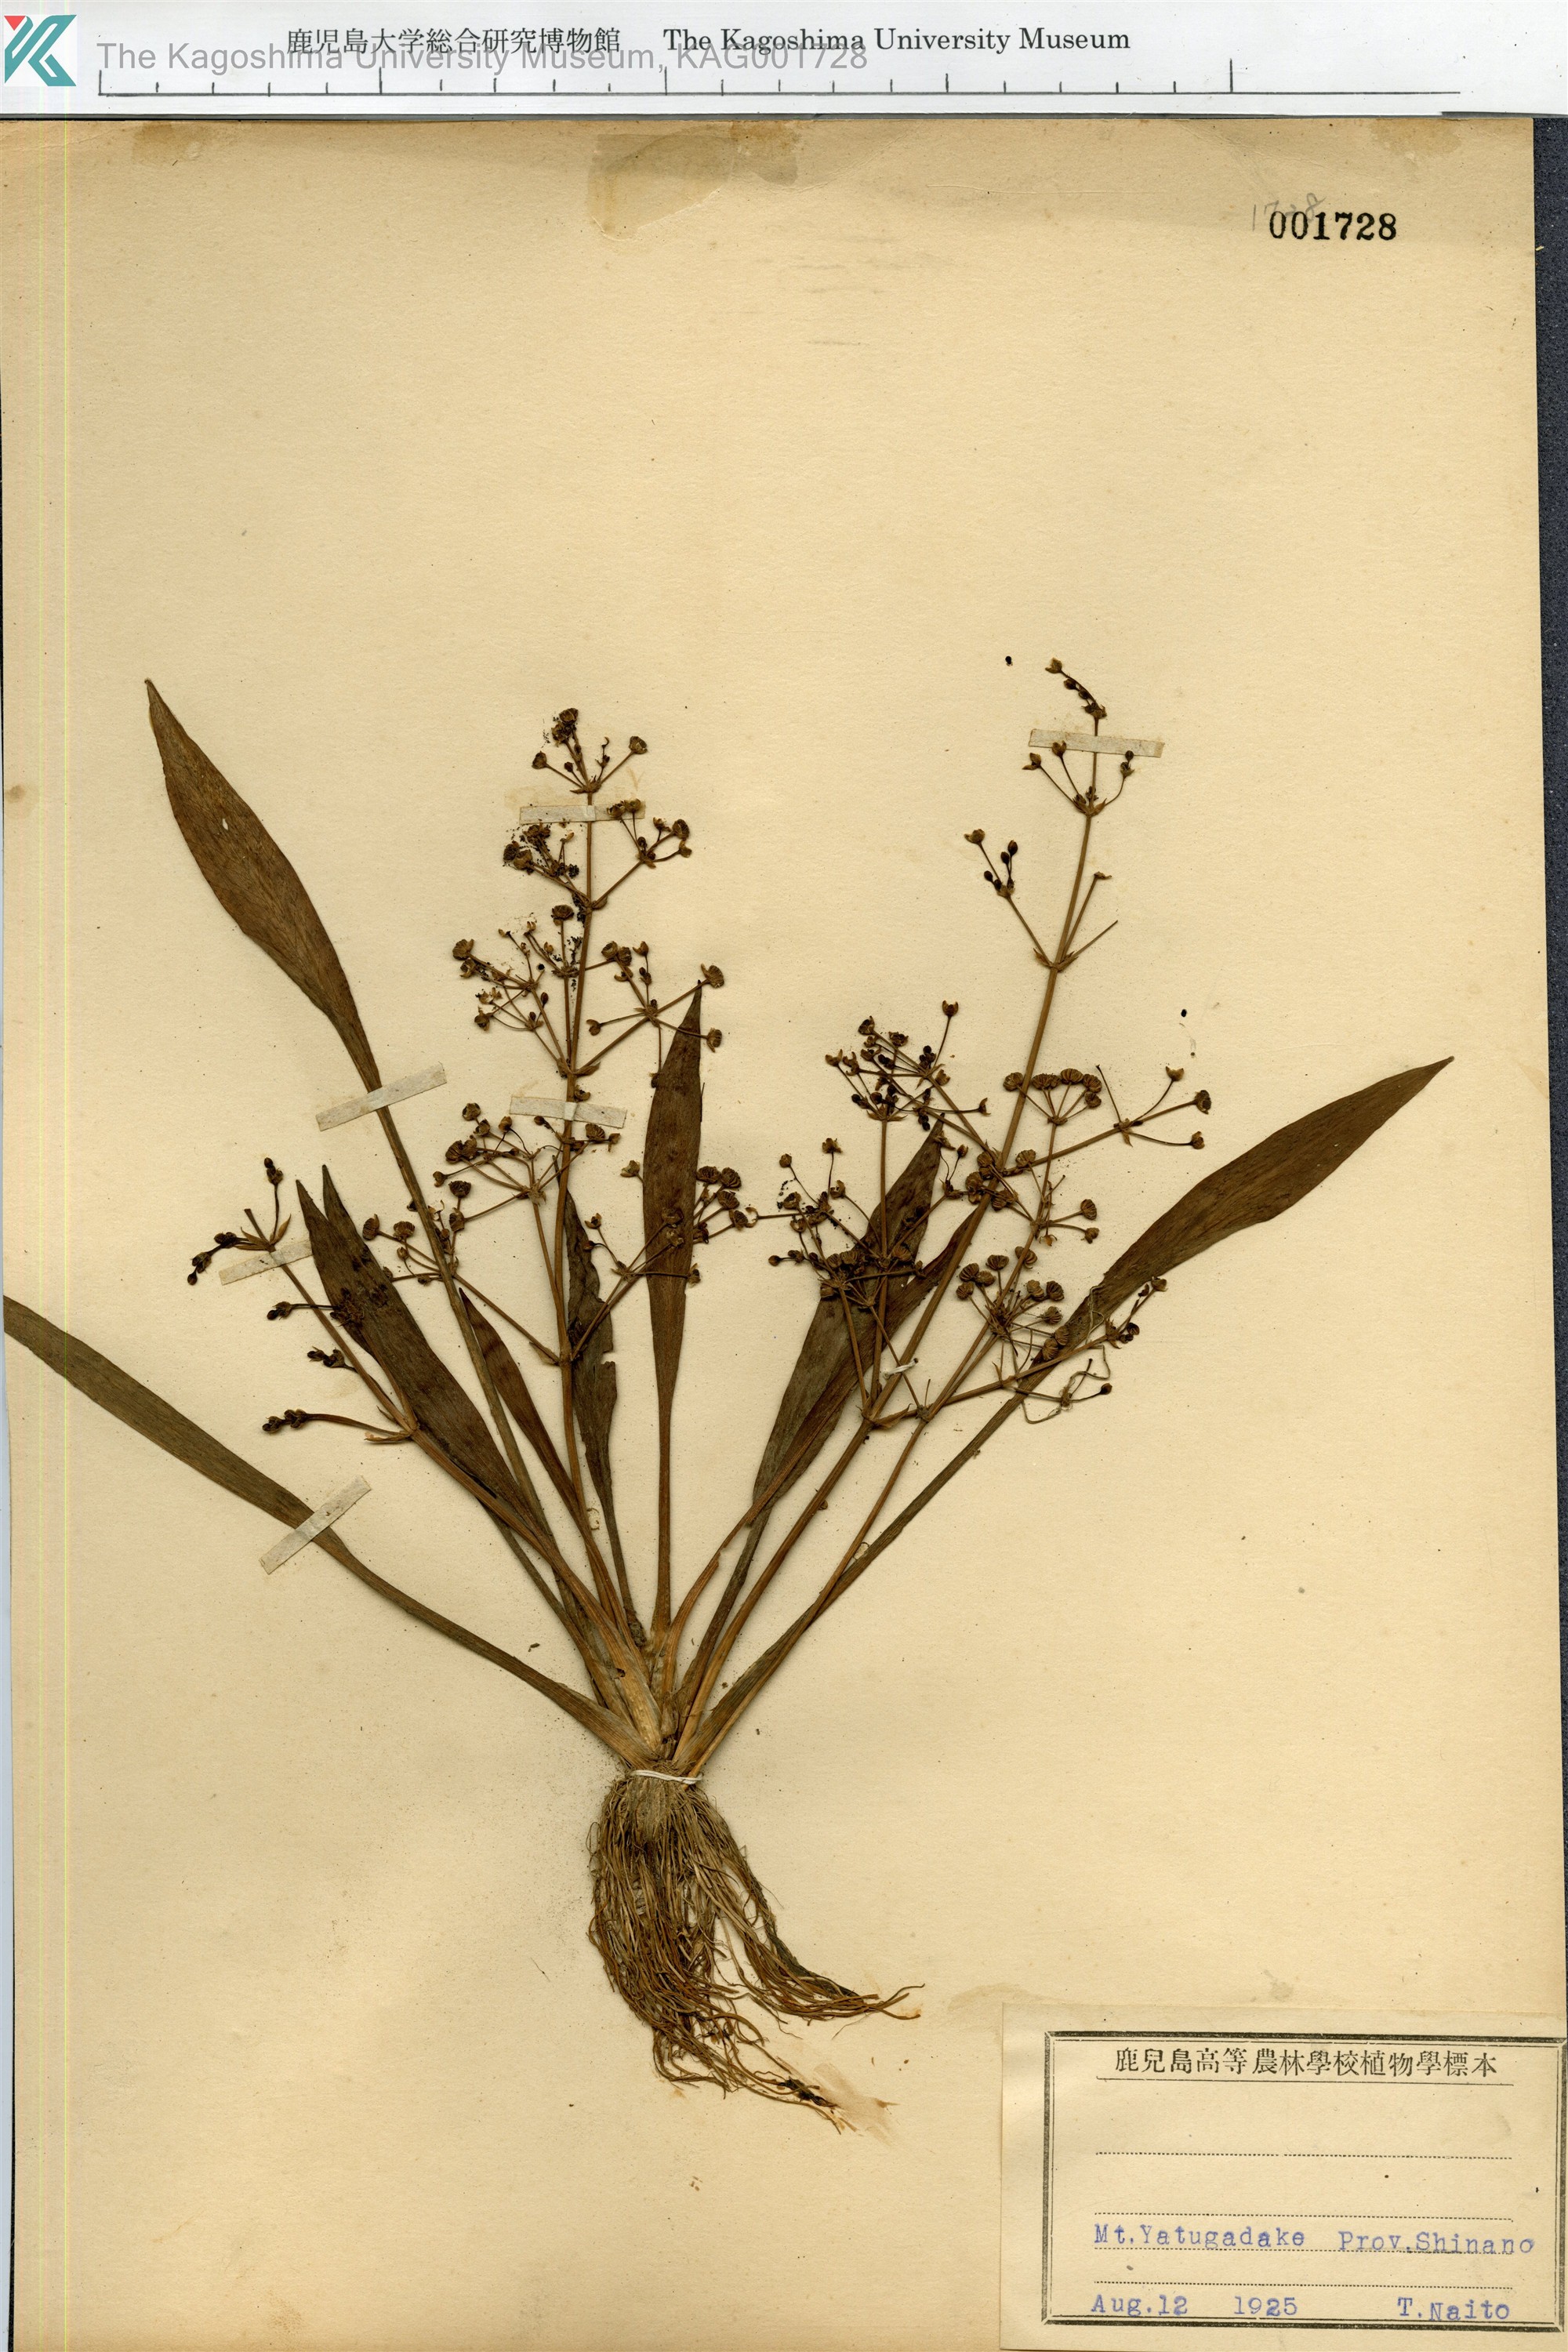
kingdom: Plantae
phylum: Tracheophyta
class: Liliopsida
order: Alismatales
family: Alismataceae
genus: Alisma
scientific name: Alisma canaliculatum
